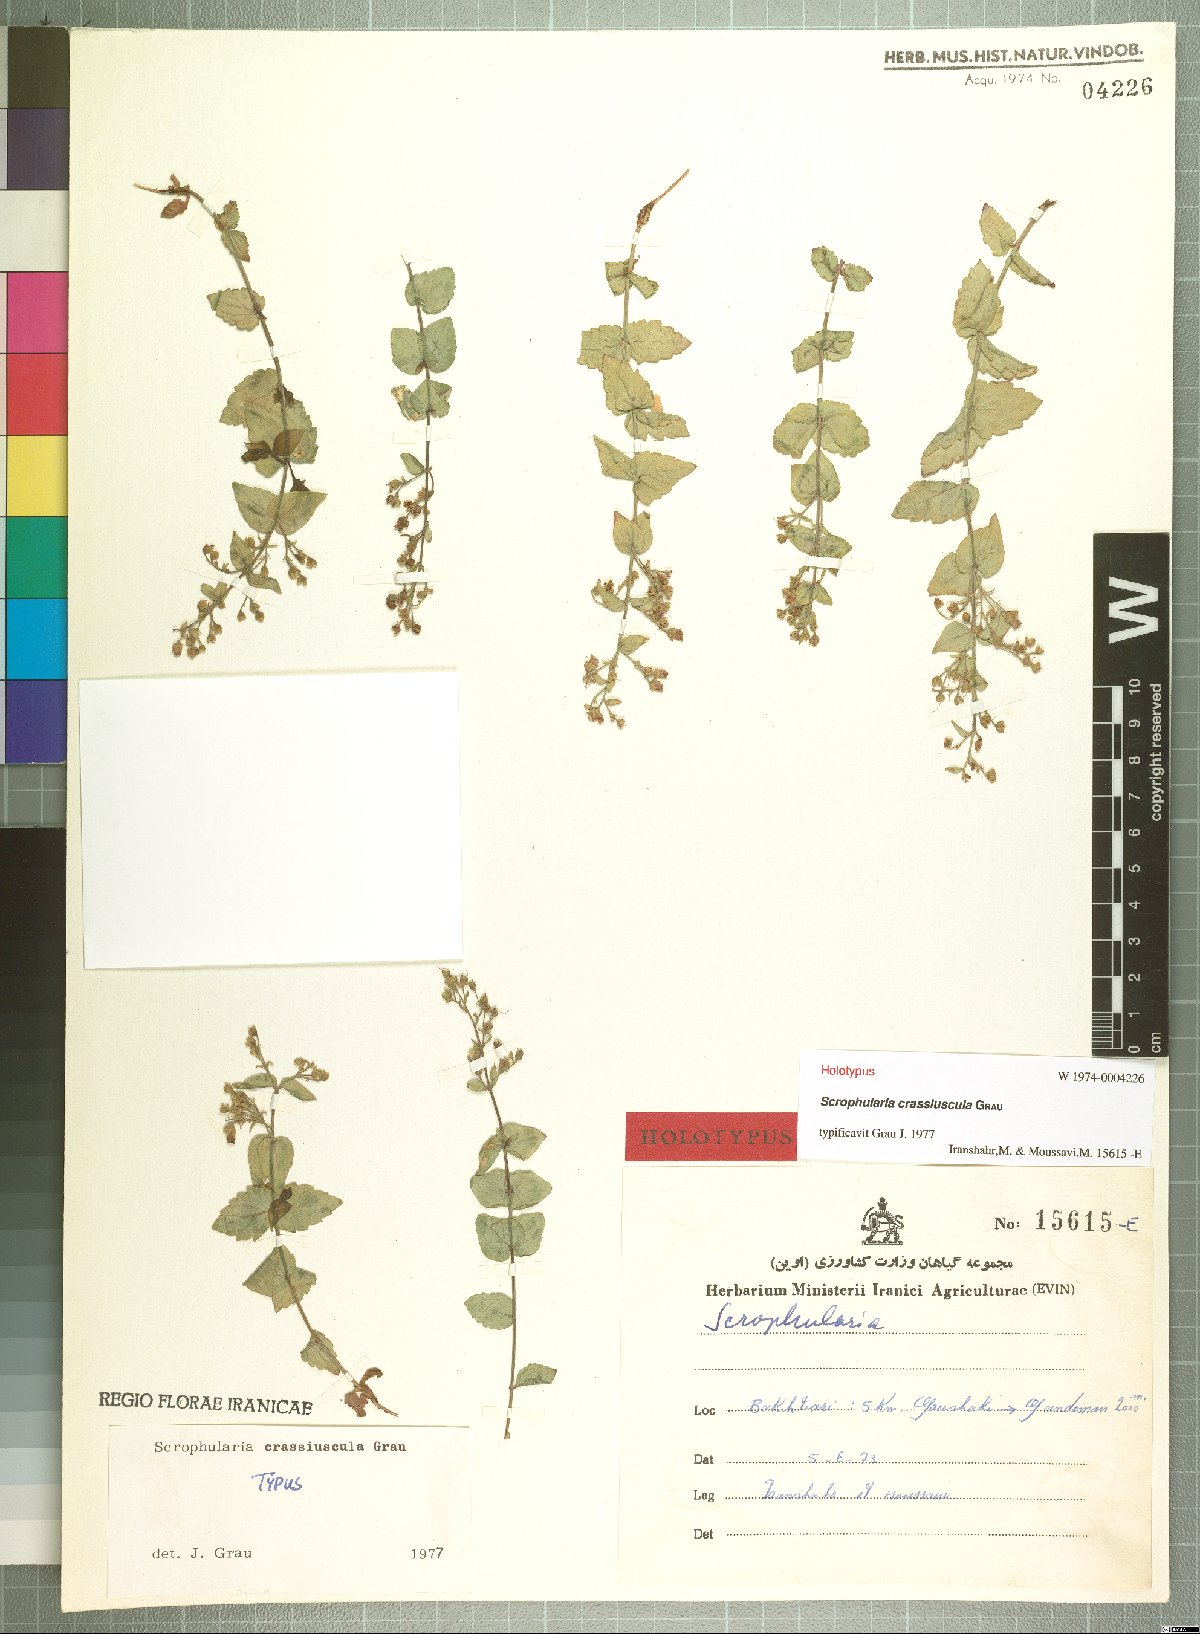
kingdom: Plantae
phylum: Tracheophyta
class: Magnoliopsida
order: Lamiales
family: Scrophulariaceae
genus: Scrophularia
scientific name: Scrophularia crassiuscula
